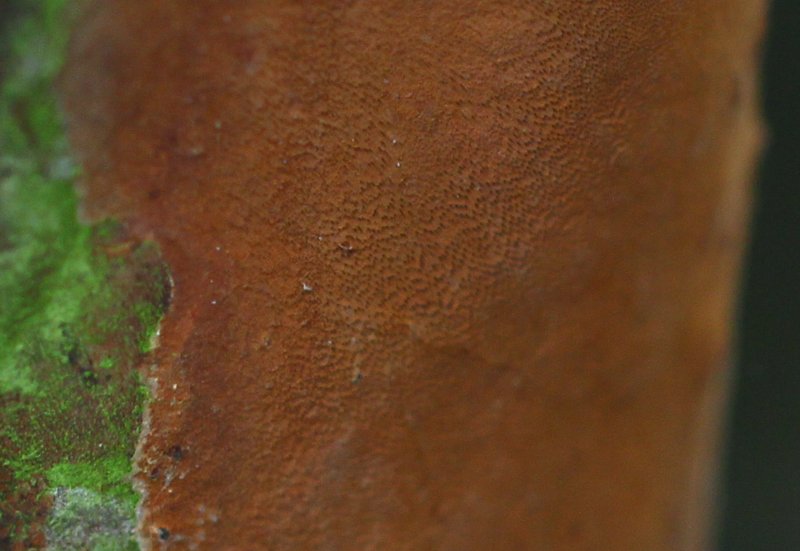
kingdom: Fungi
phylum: Basidiomycota
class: Agaricomycetes
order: Hymenochaetales
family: Hymenochaetaceae
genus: Fomitiporia
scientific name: Fomitiporia punctata
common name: pude-ildporesvamp
